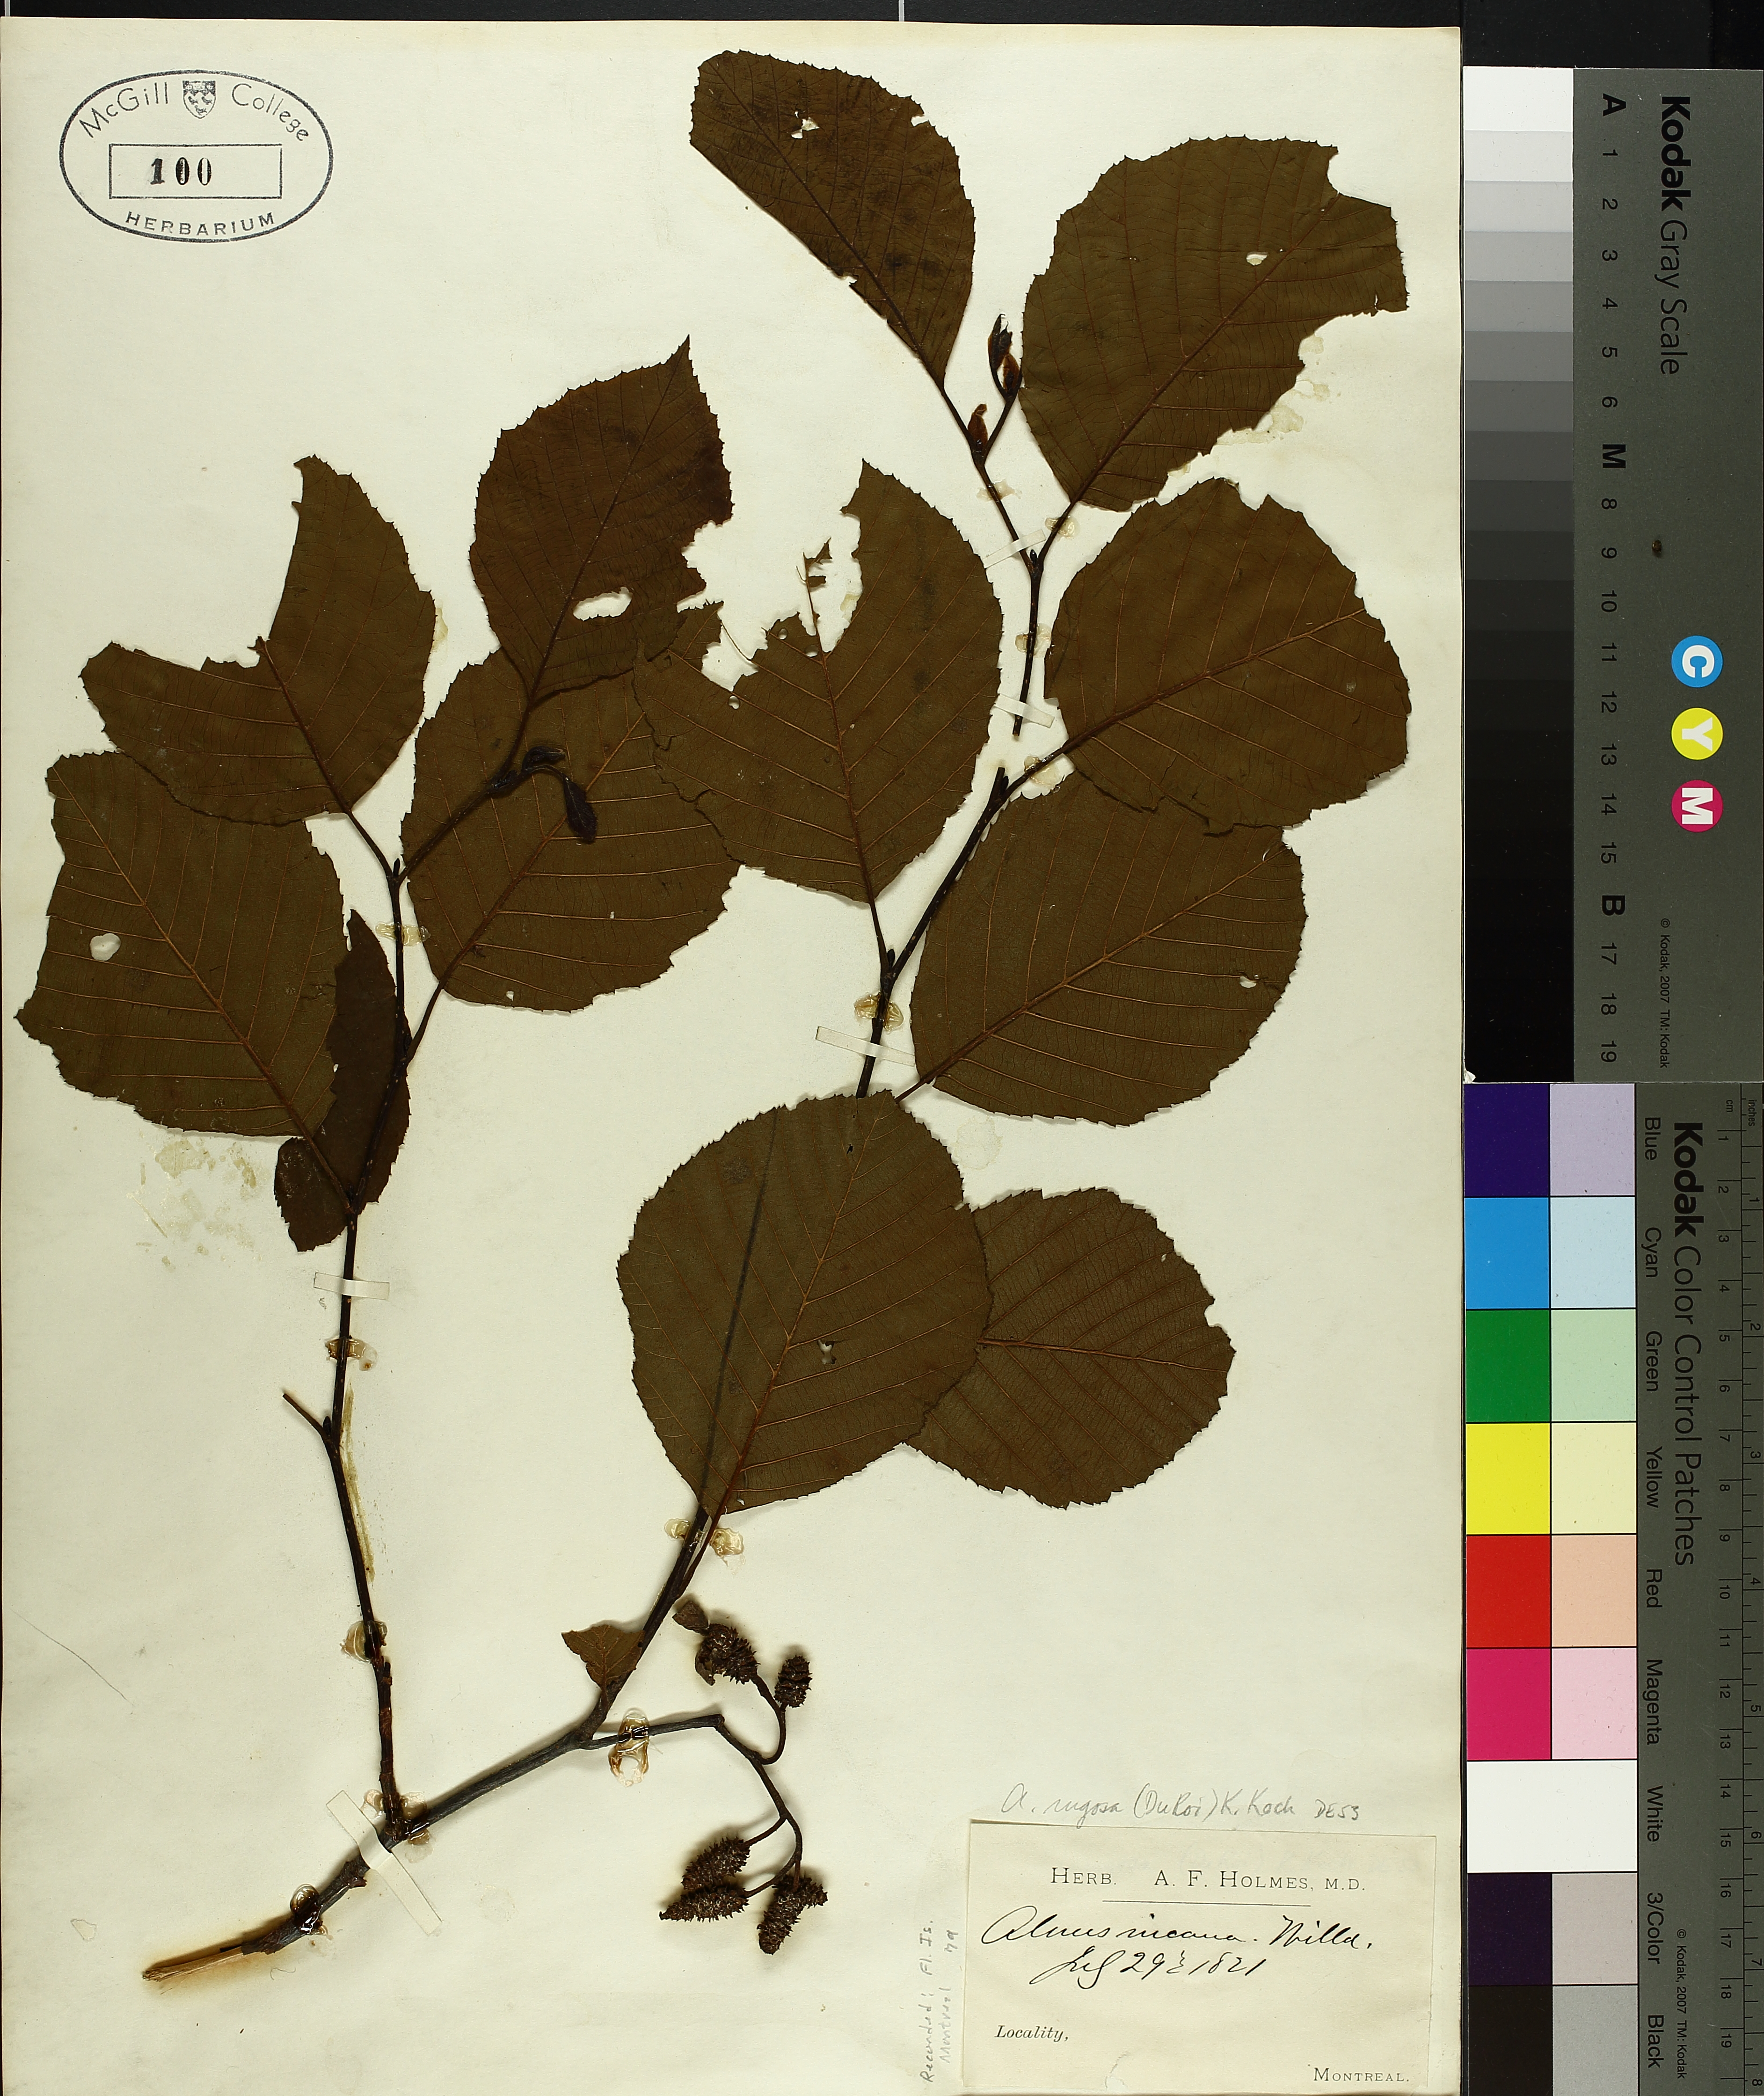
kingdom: Plantae
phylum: Tracheophyta
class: Magnoliopsida
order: Fagales
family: Betulaceae
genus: Alnus
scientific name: Alnus incana
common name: Grey alder
